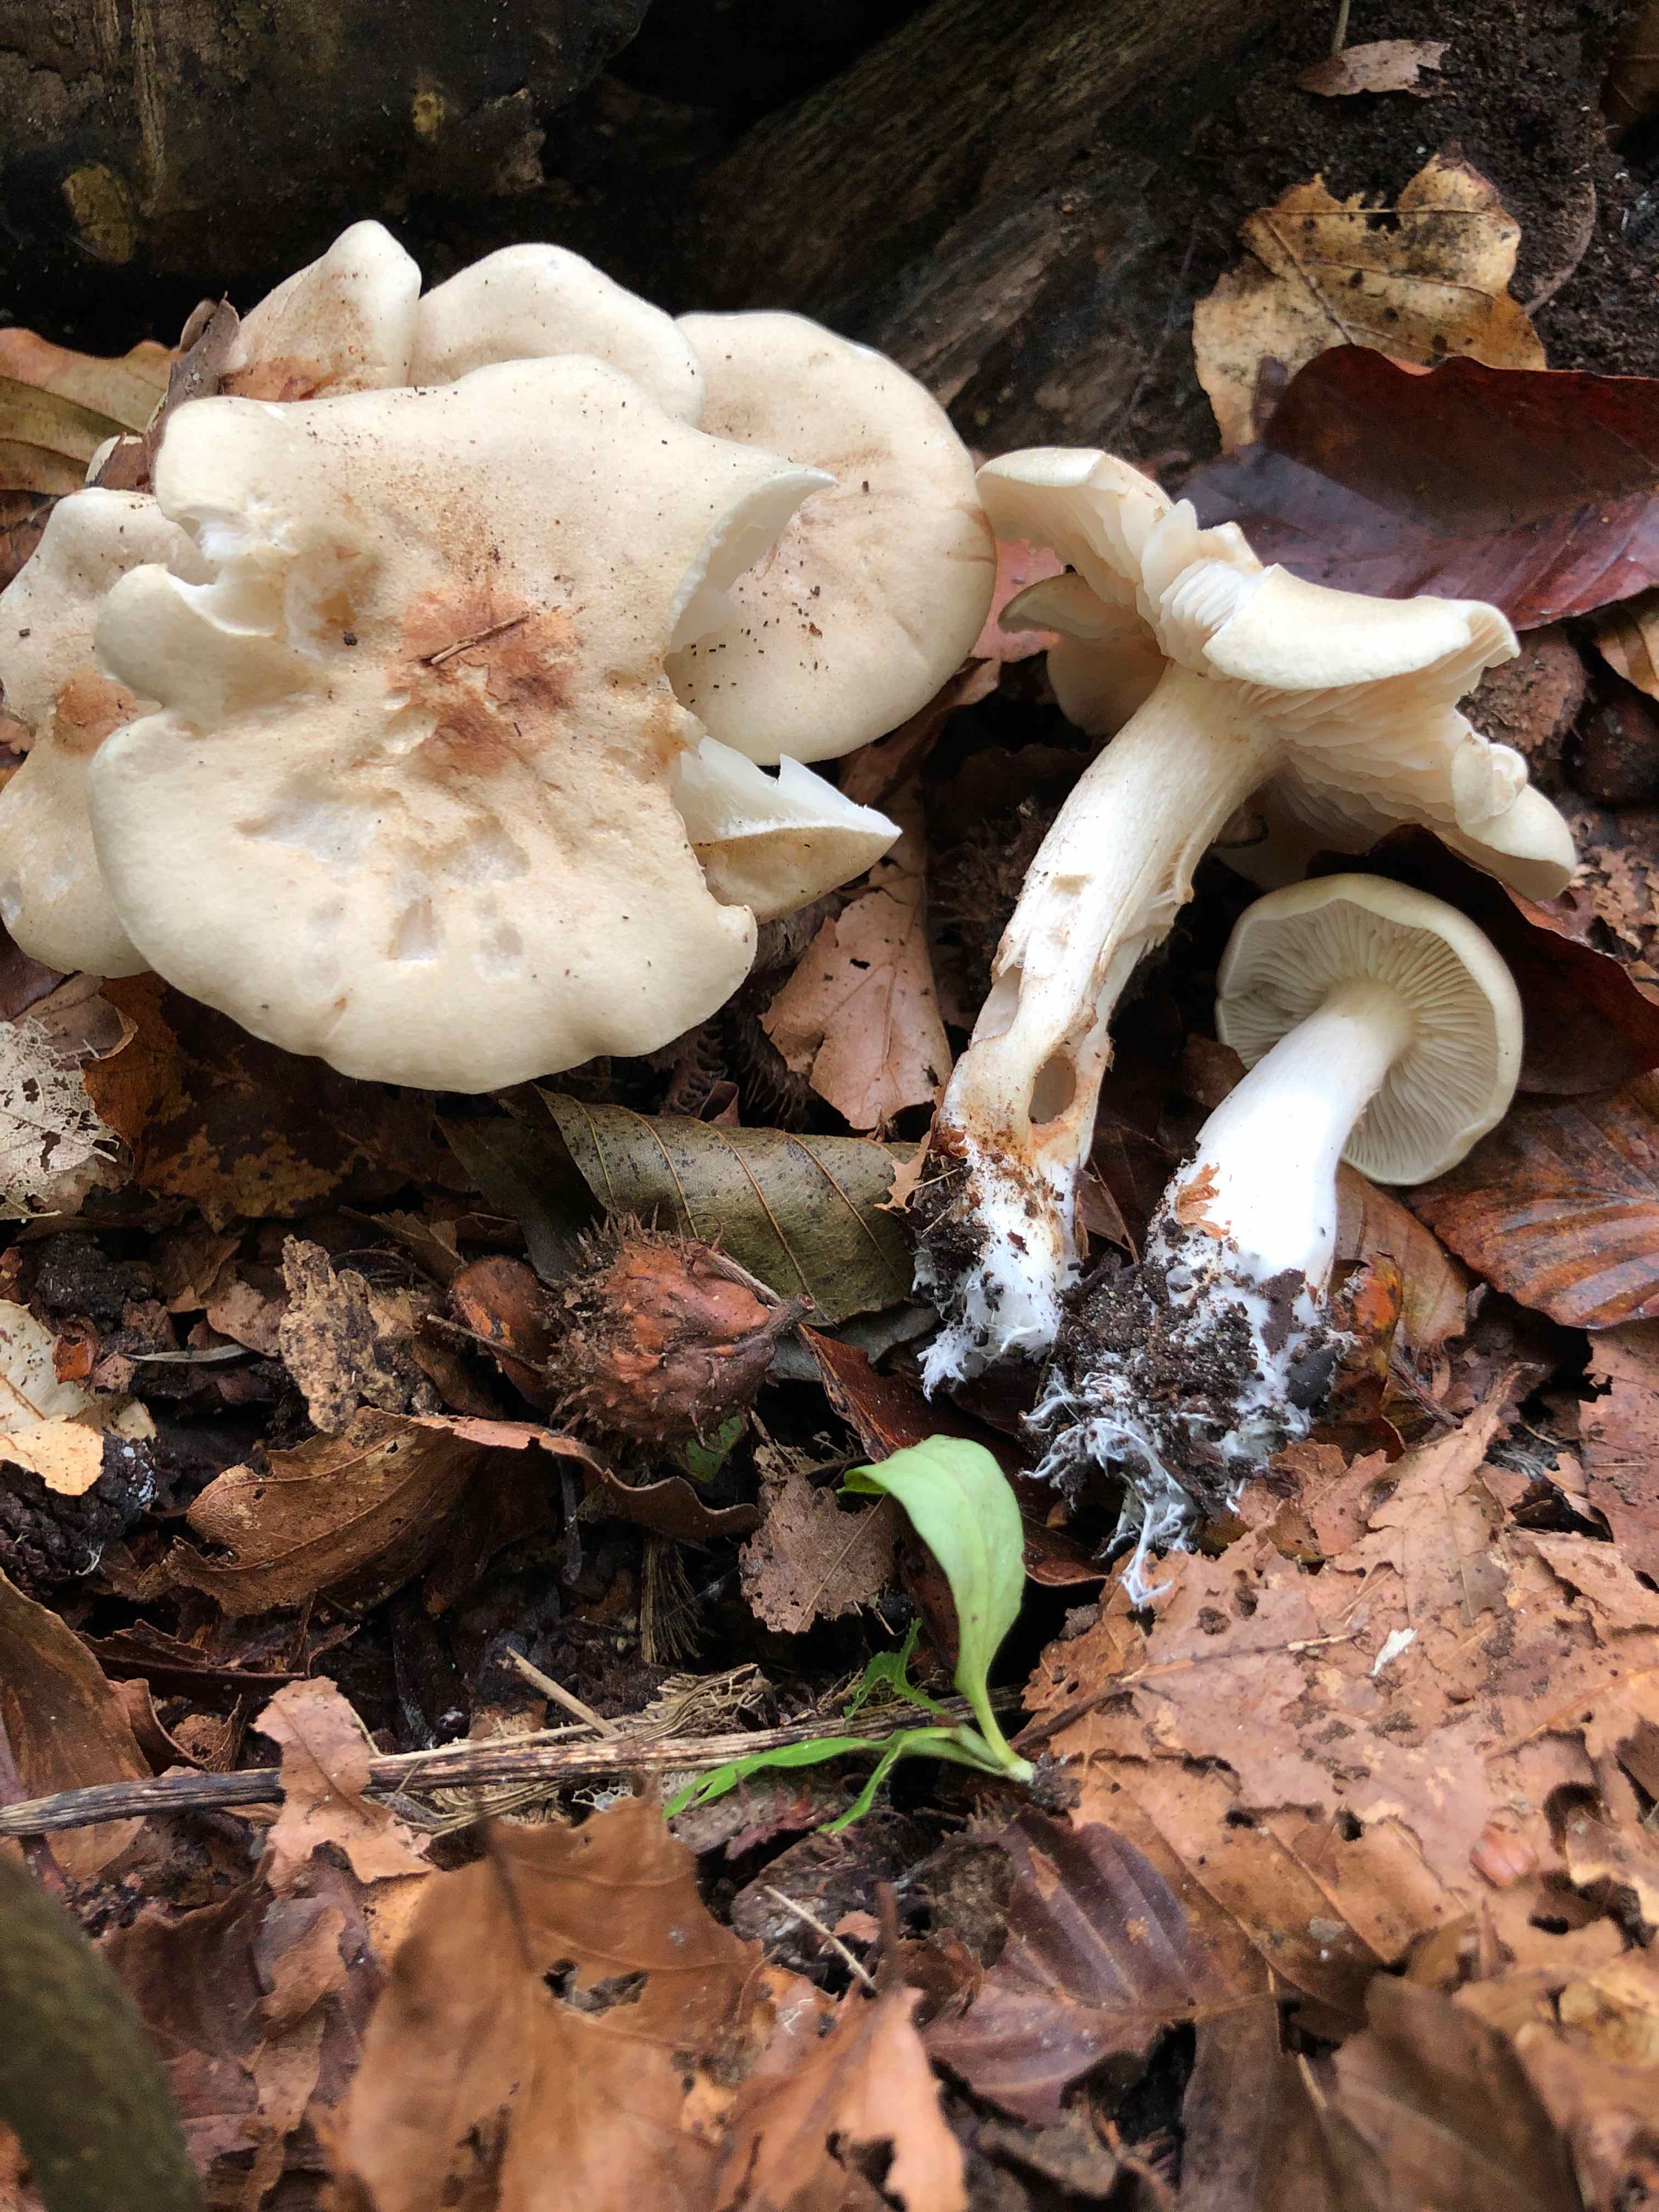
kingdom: Fungi
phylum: Basidiomycota
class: Agaricomycetes
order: Agaricales
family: Tricholomataceae
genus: Tricholoma
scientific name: Tricholoma lascivum
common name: stinkende ridderhat
